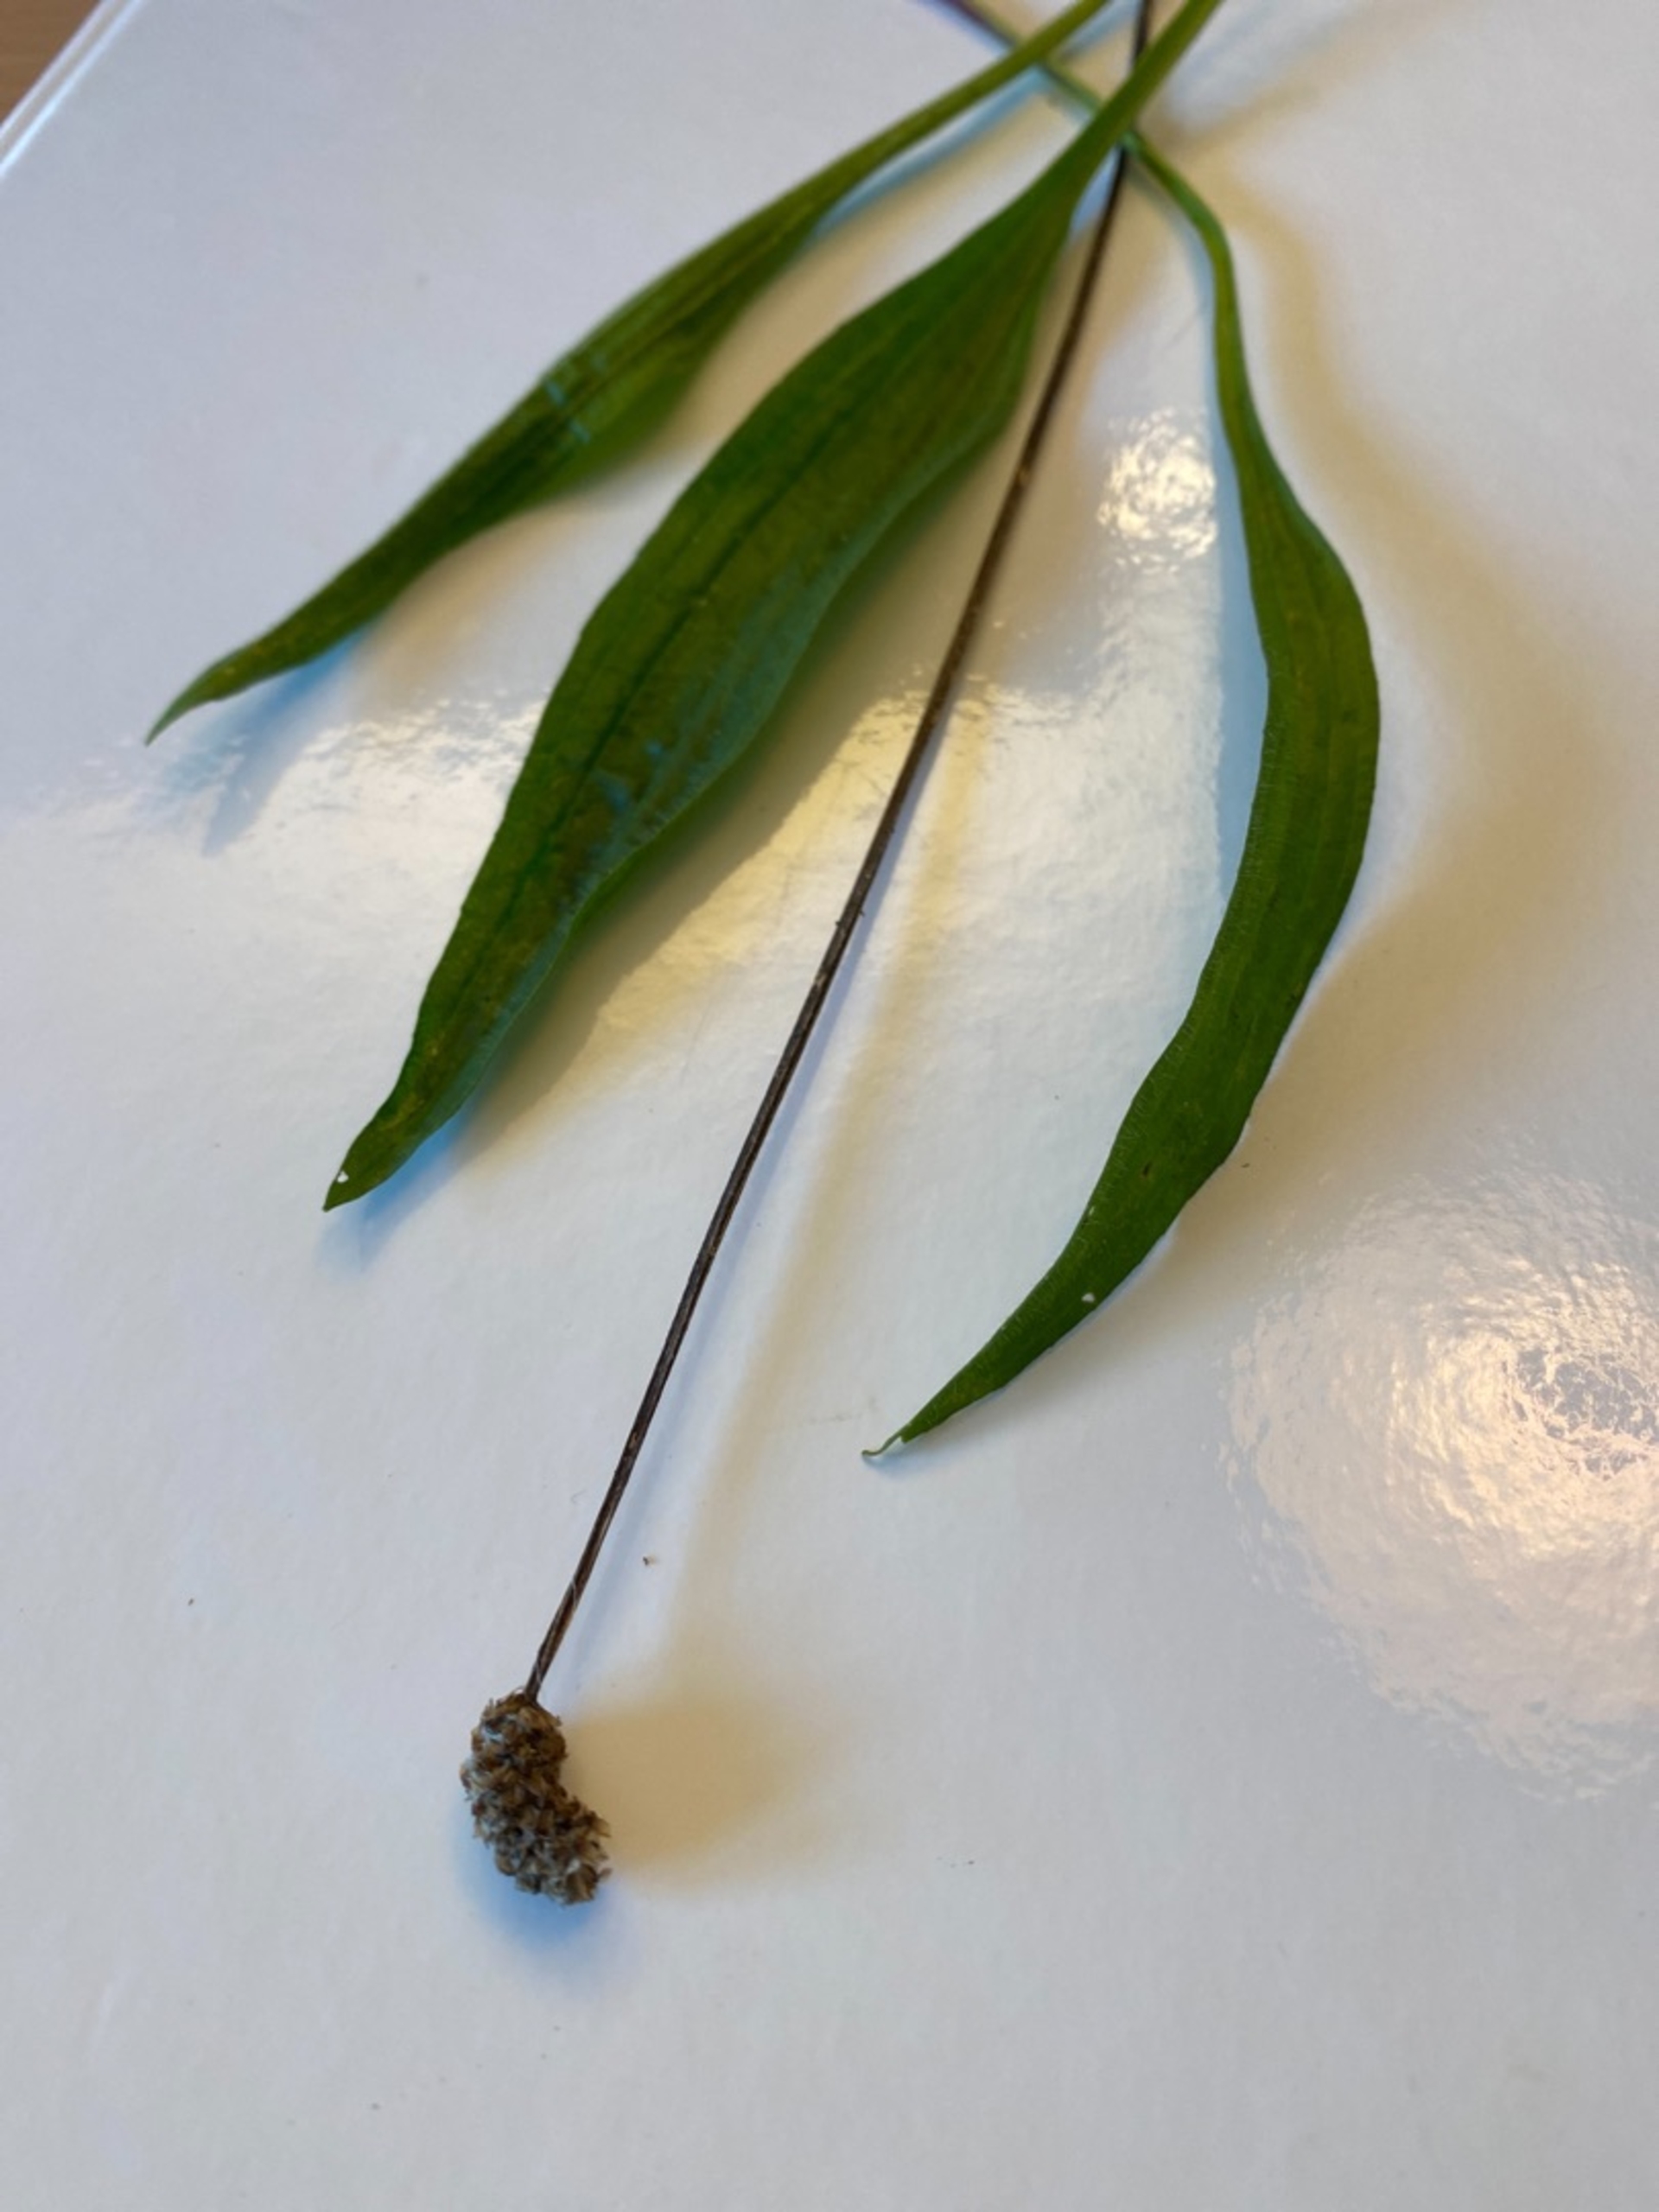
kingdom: Plantae
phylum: Tracheophyta
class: Magnoliopsida
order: Lamiales
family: Plantaginaceae
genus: Plantago
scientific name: Plantago lanceolata
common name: Lancet-vejbred
